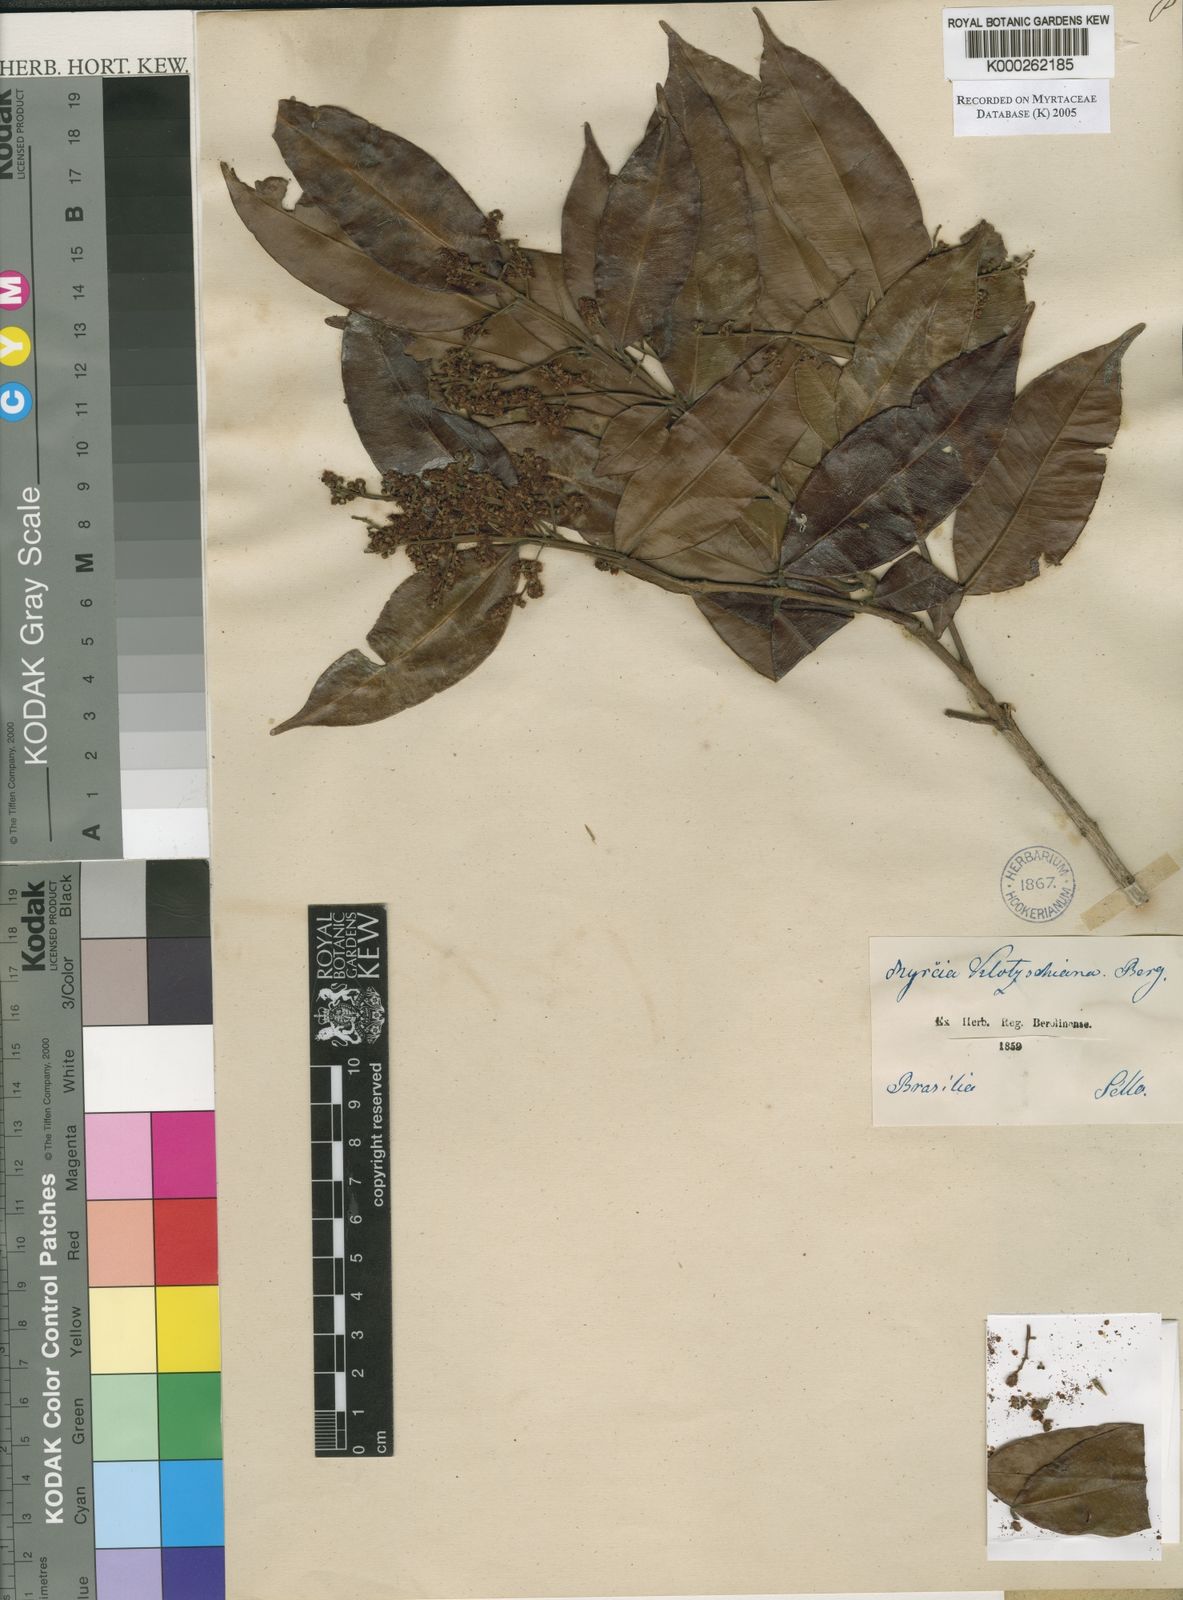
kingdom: Plantae
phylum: Tracheophyta
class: Magnoliopsida
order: Myrtales
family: Myrtaceae
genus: Myrcia
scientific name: Myrcia splendens
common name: Surinam cherry
